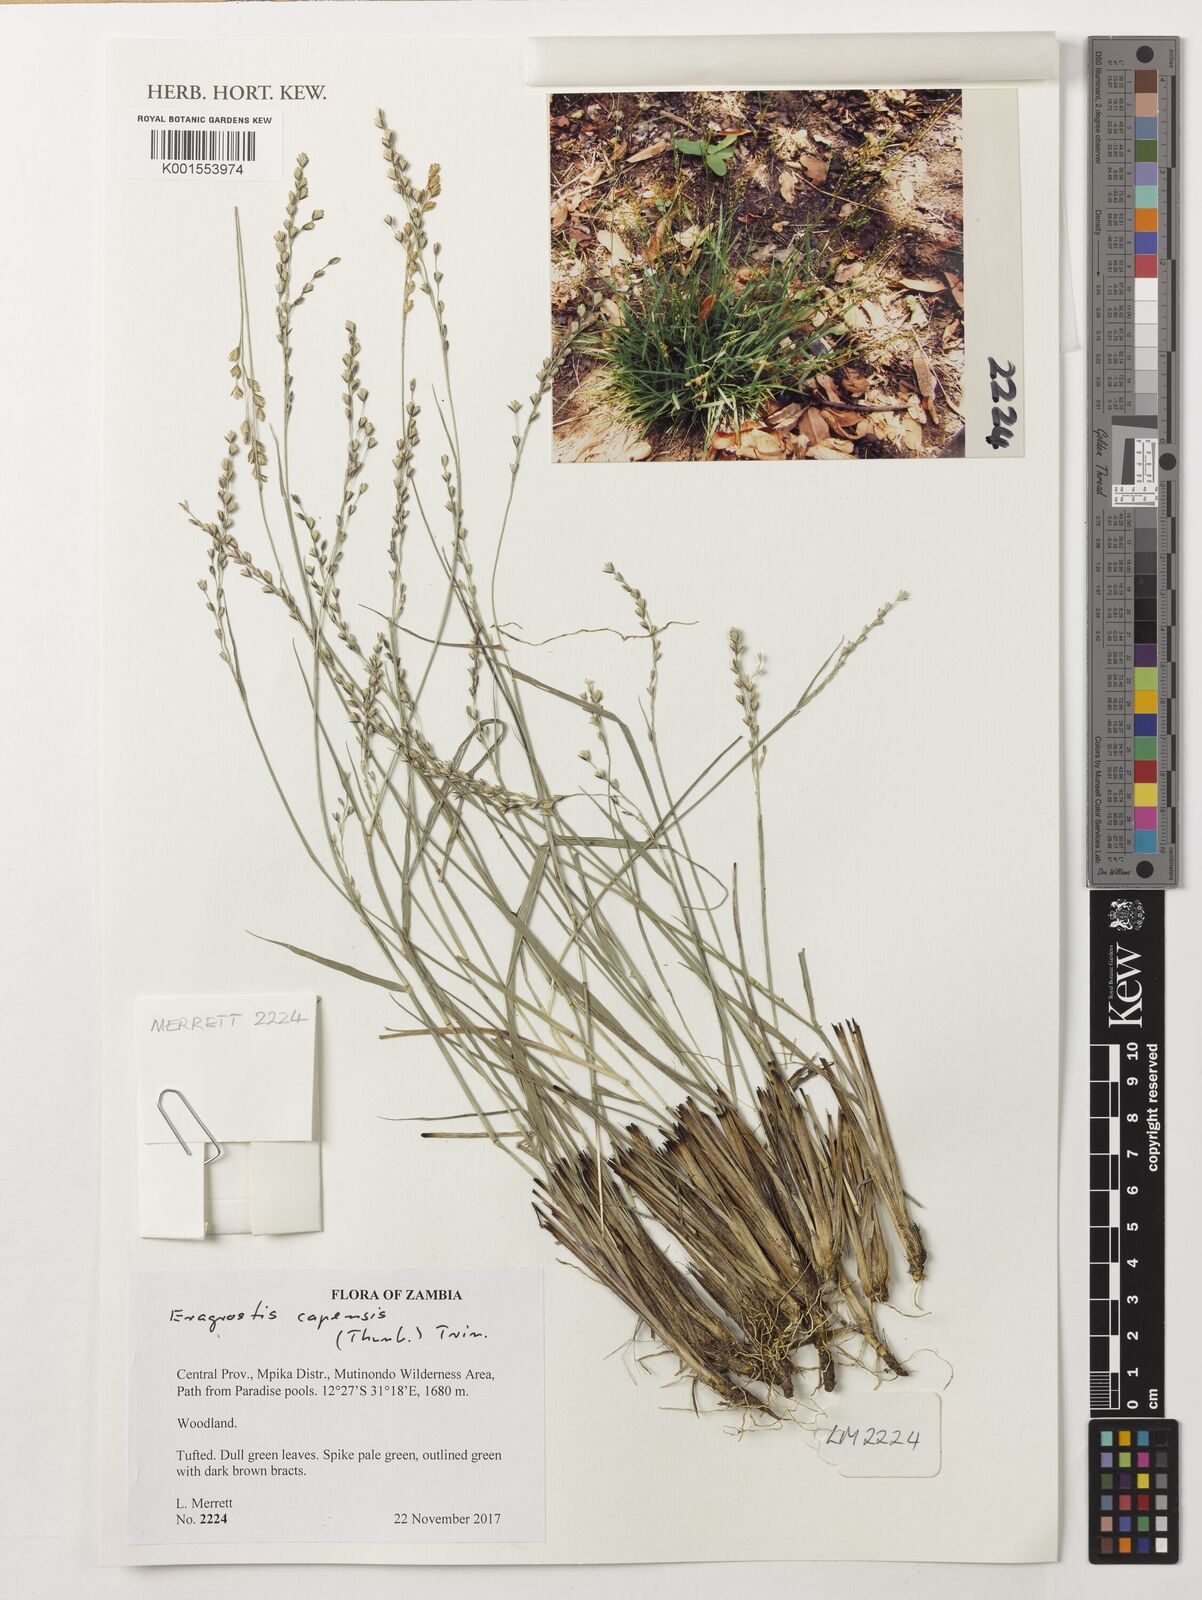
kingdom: Plantae
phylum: Tracheophyta
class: Liliopsida
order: Poales
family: Poaceae
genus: Eragrostis
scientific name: Eragrostis capensis
